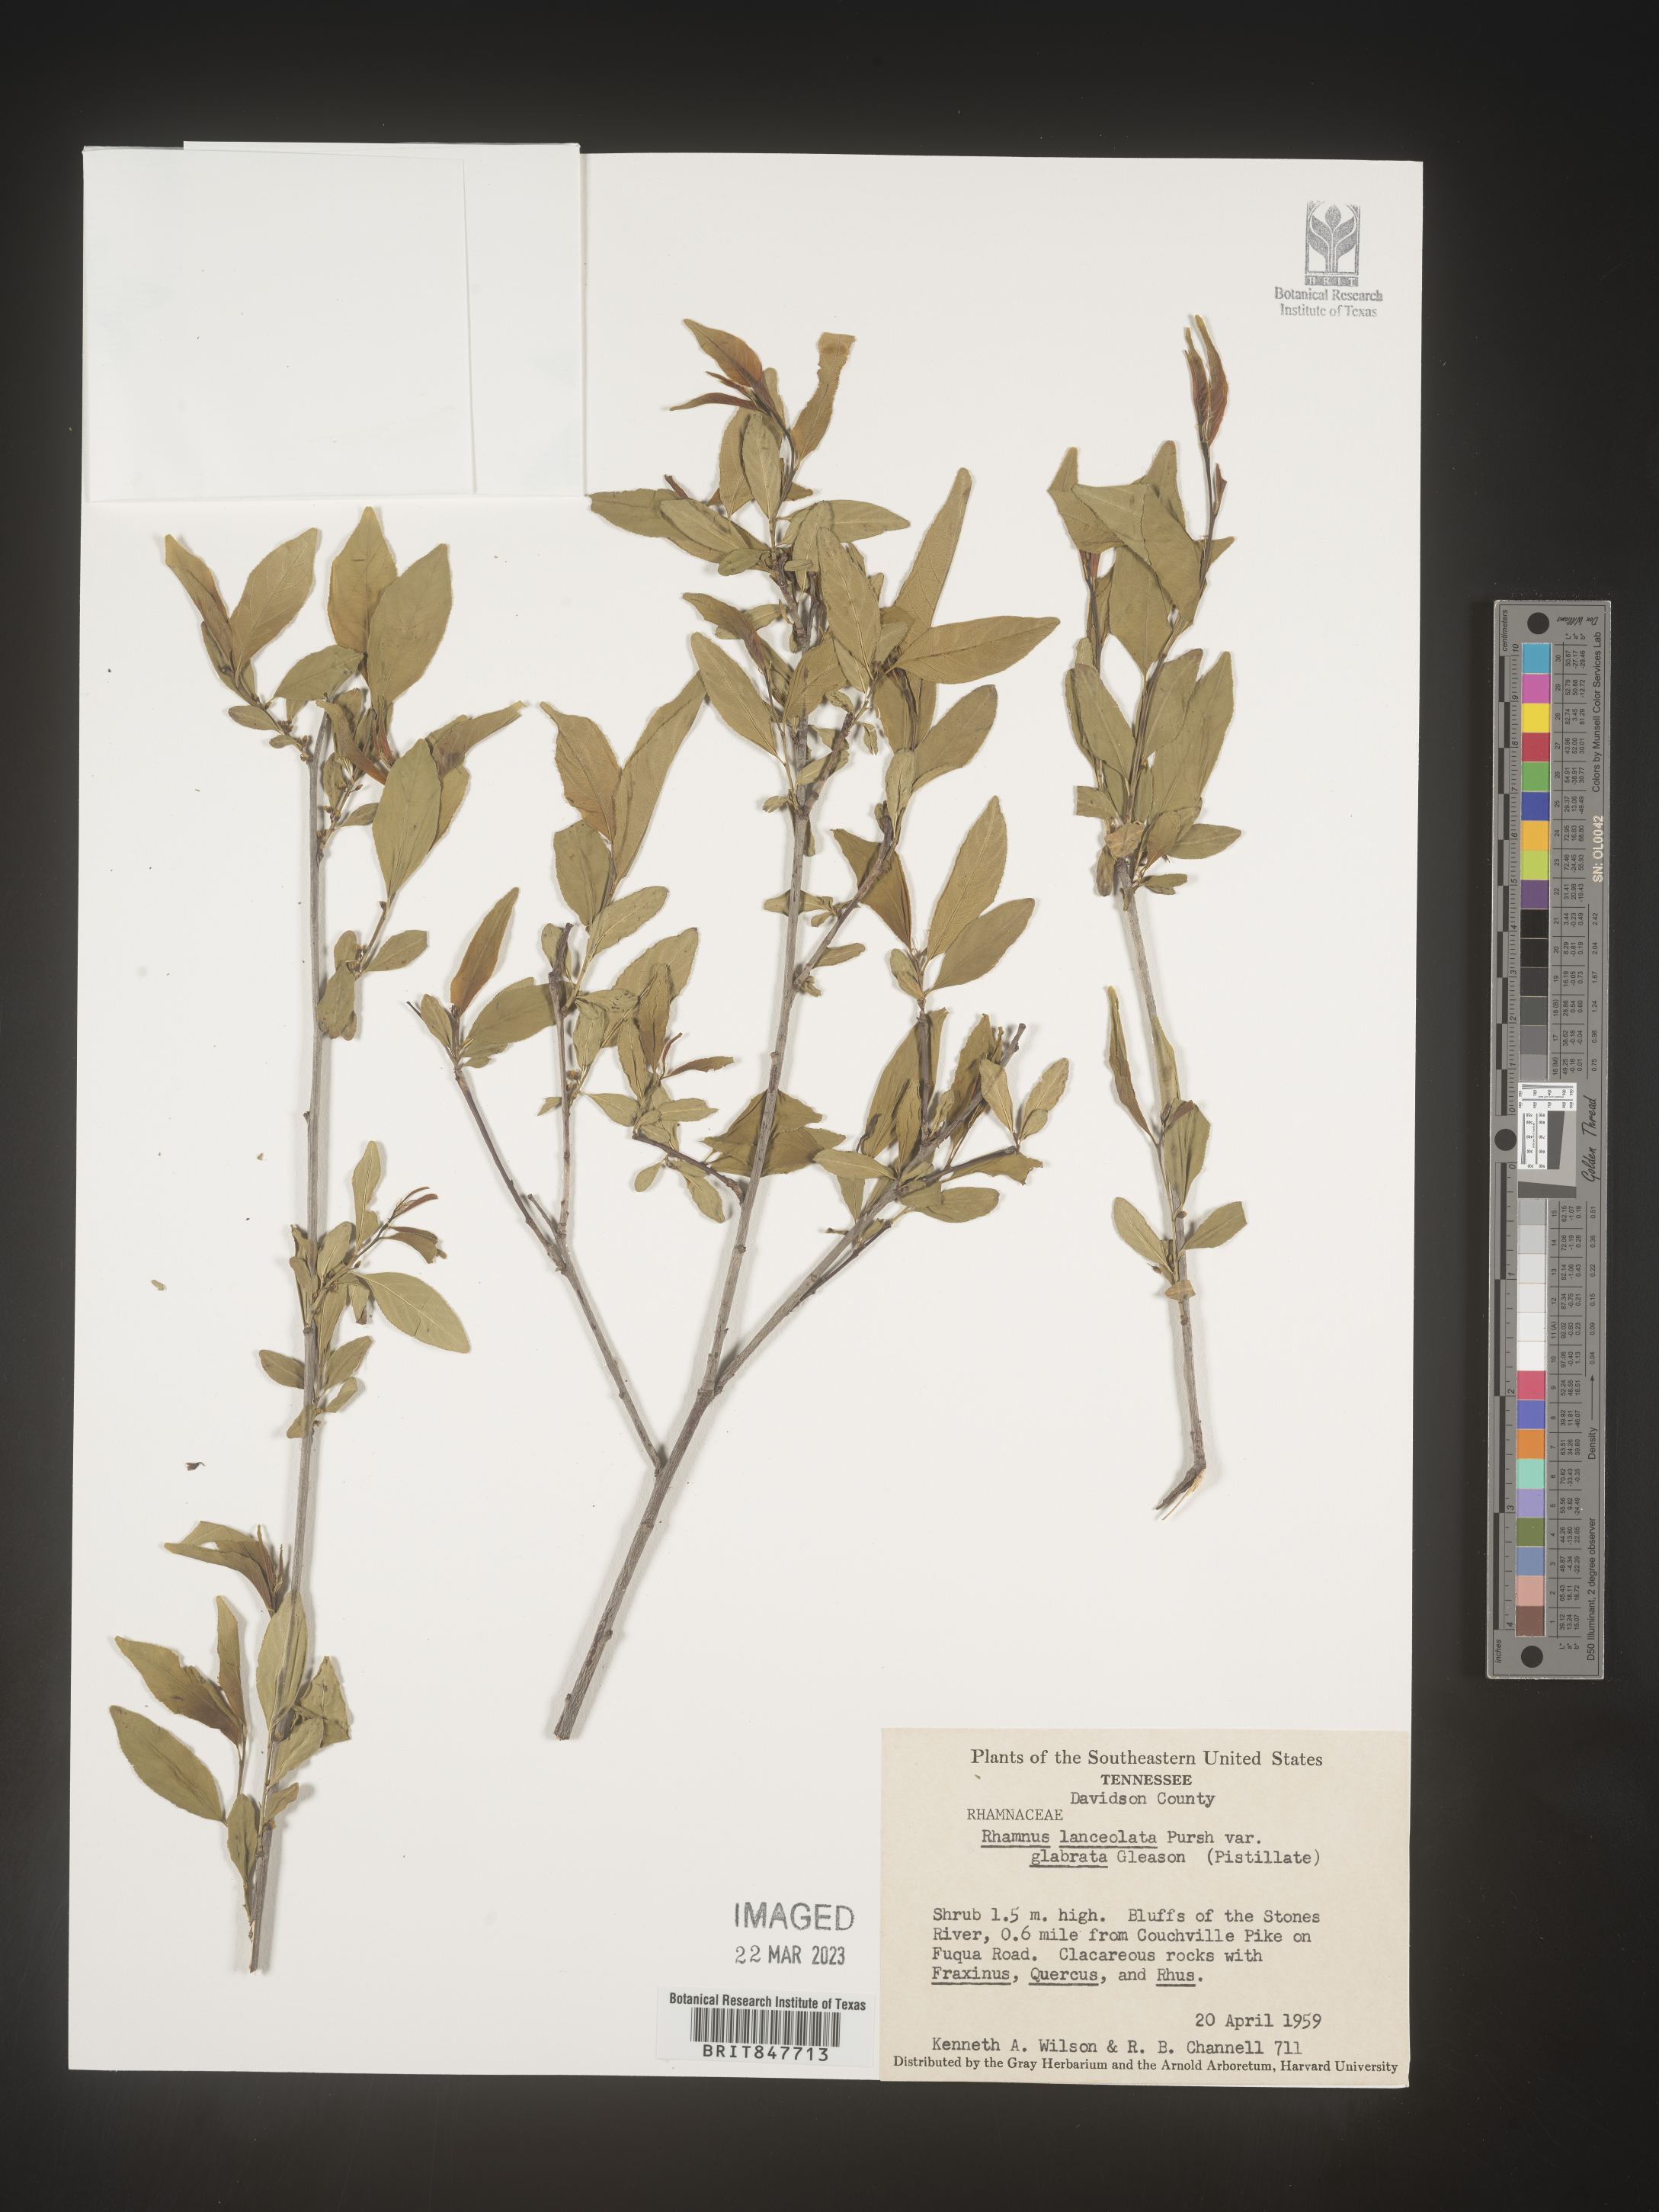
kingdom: Plantae
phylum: Tracheophyta
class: Magnoliopsida
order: Rosales
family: Rhamnaceae
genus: Endotropis
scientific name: Endotropis lanceolata
